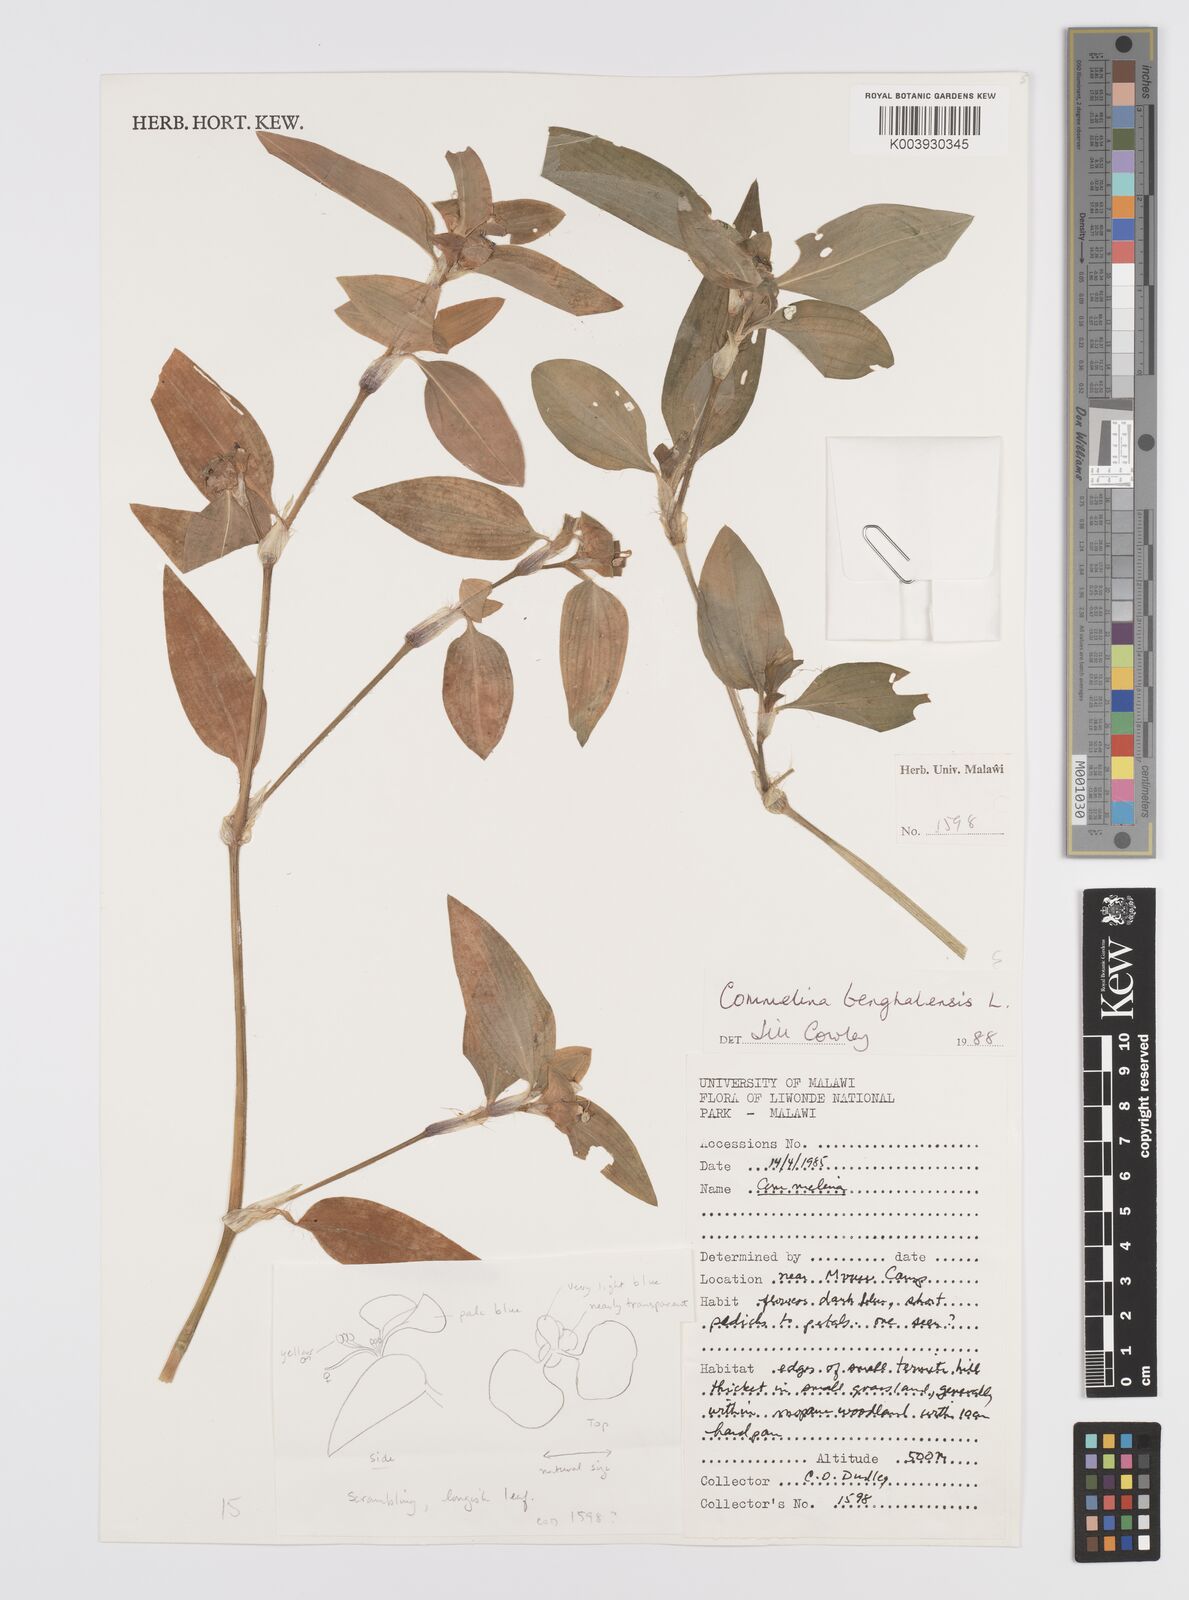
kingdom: Plantae
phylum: Tracheophyta
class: Liliopsida
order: Commelinales
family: Commelinaceae
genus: Commelina
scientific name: Commelina benghalensis
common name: Jio
